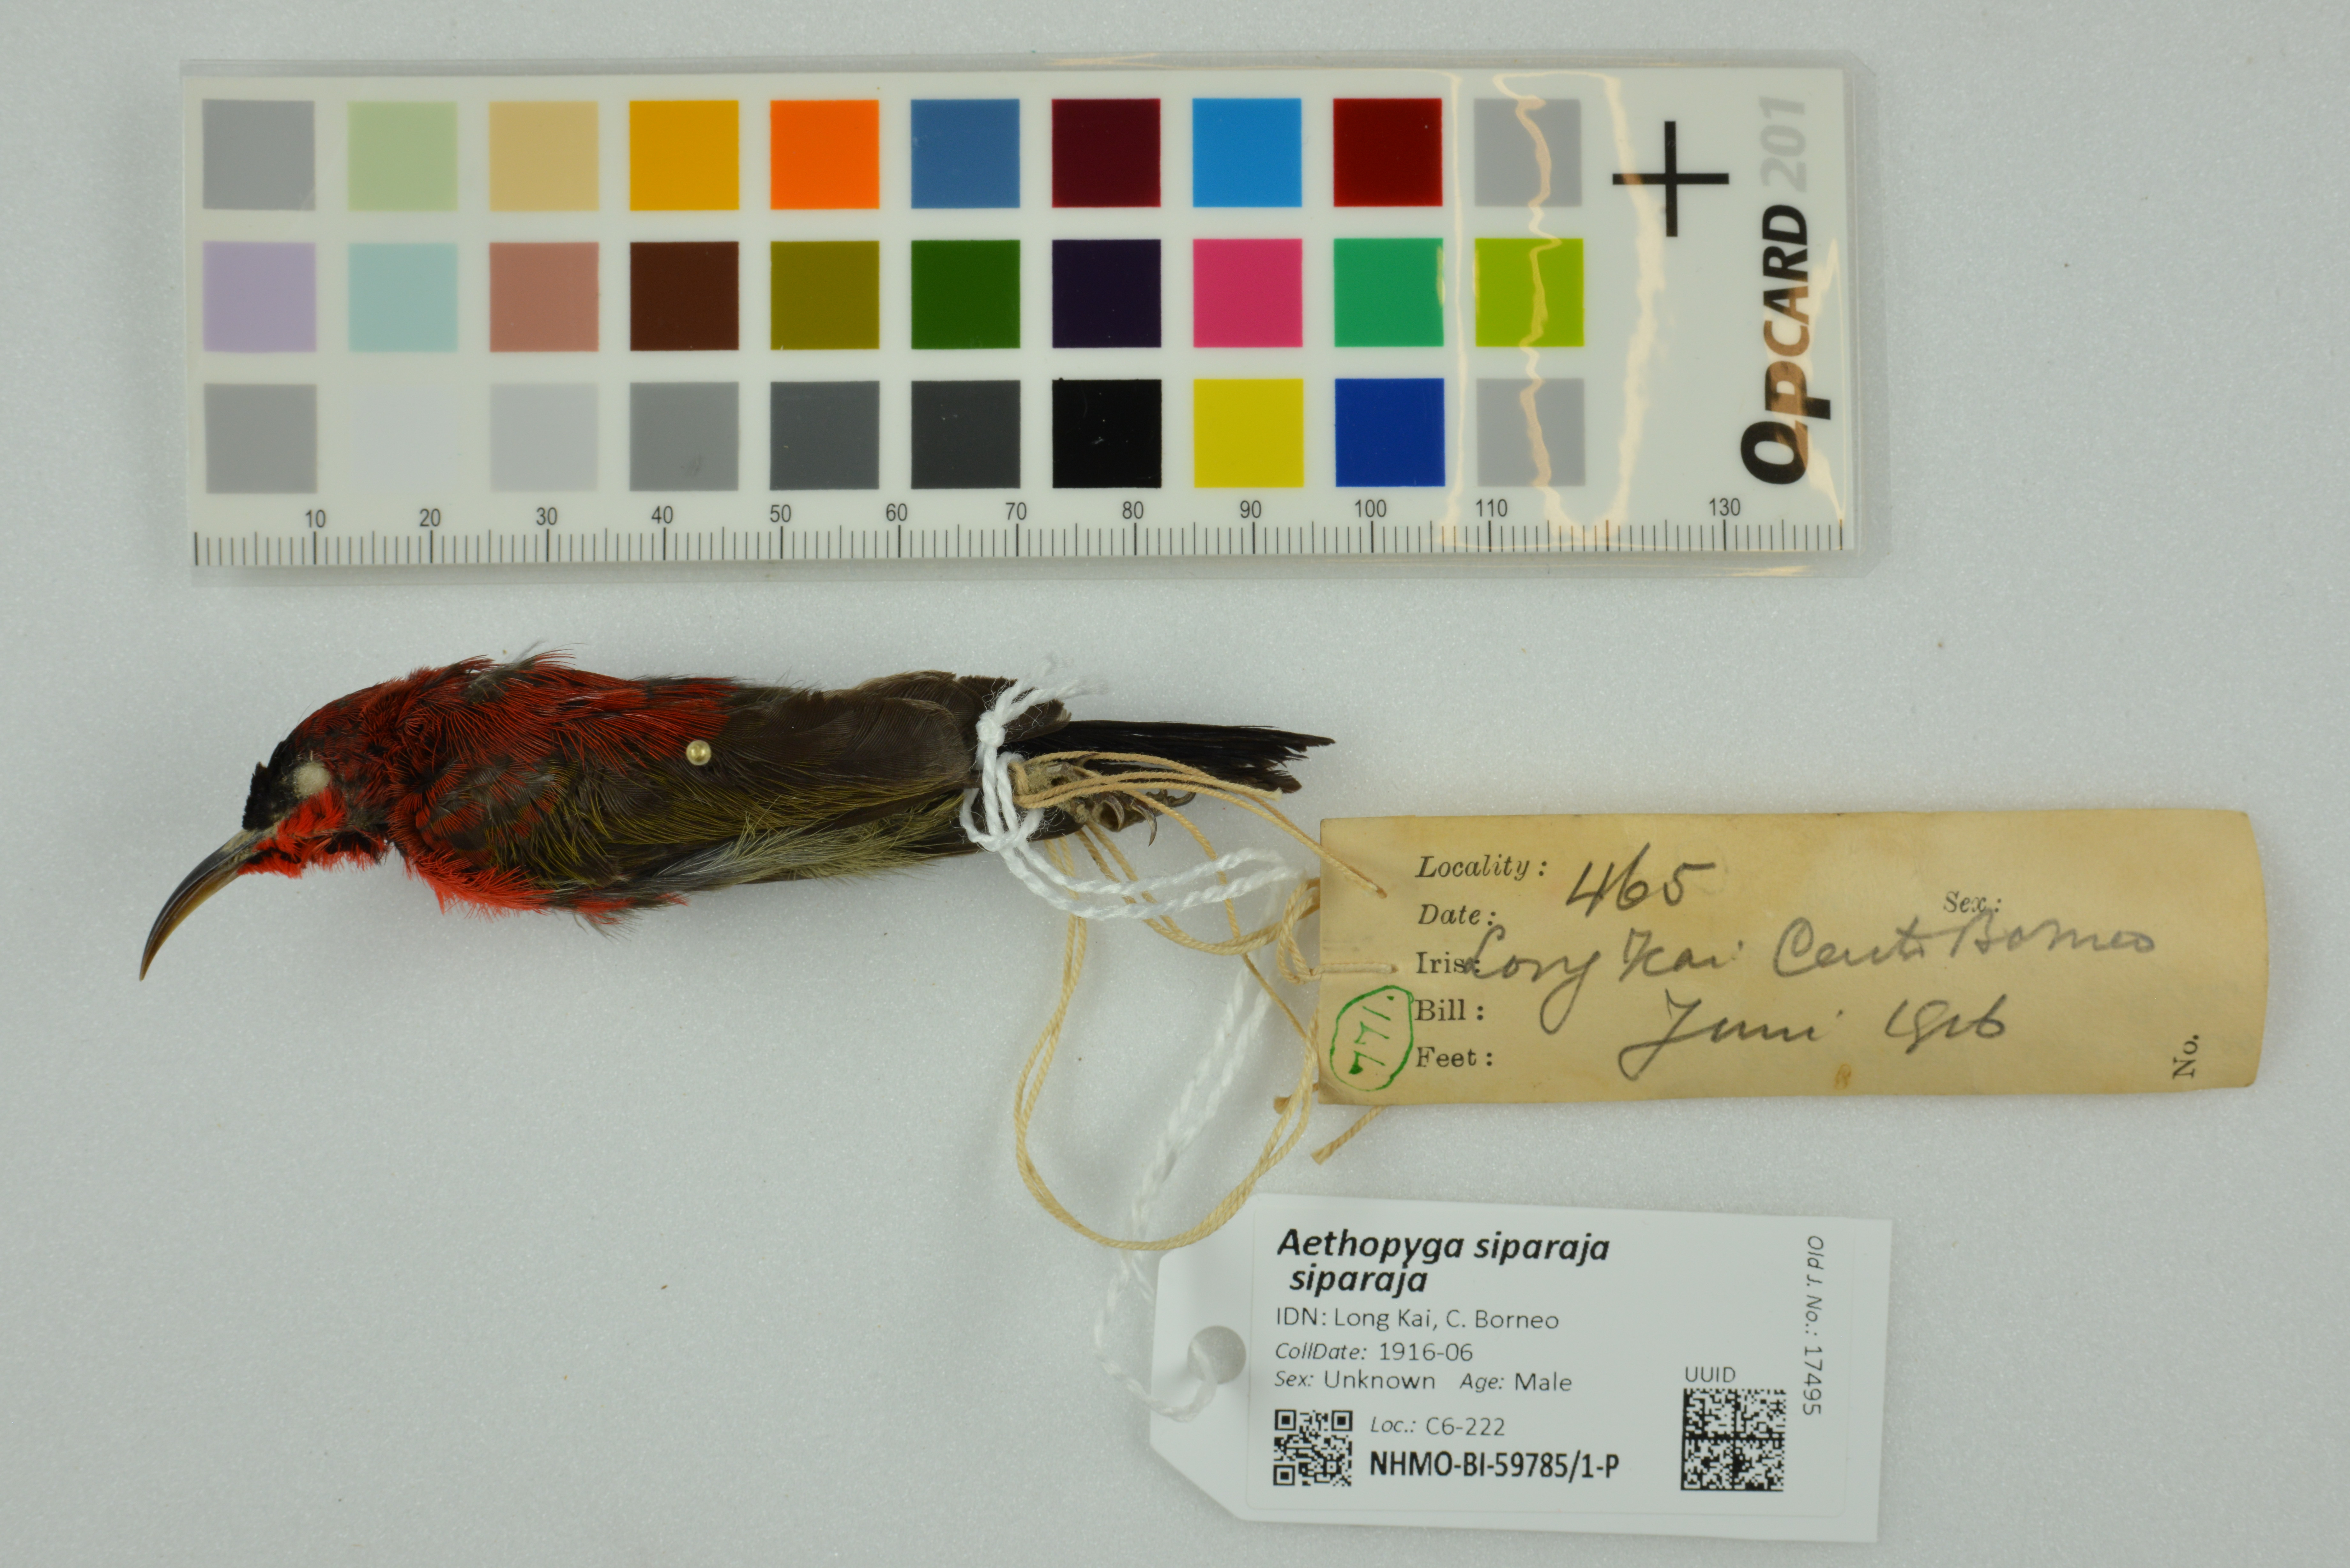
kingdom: Animalia
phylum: Chordata
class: Aves
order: Passeriformes
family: Nectariniidae
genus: Aethopyga
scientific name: Aethopyga siparaja
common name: Crimson sunbird
